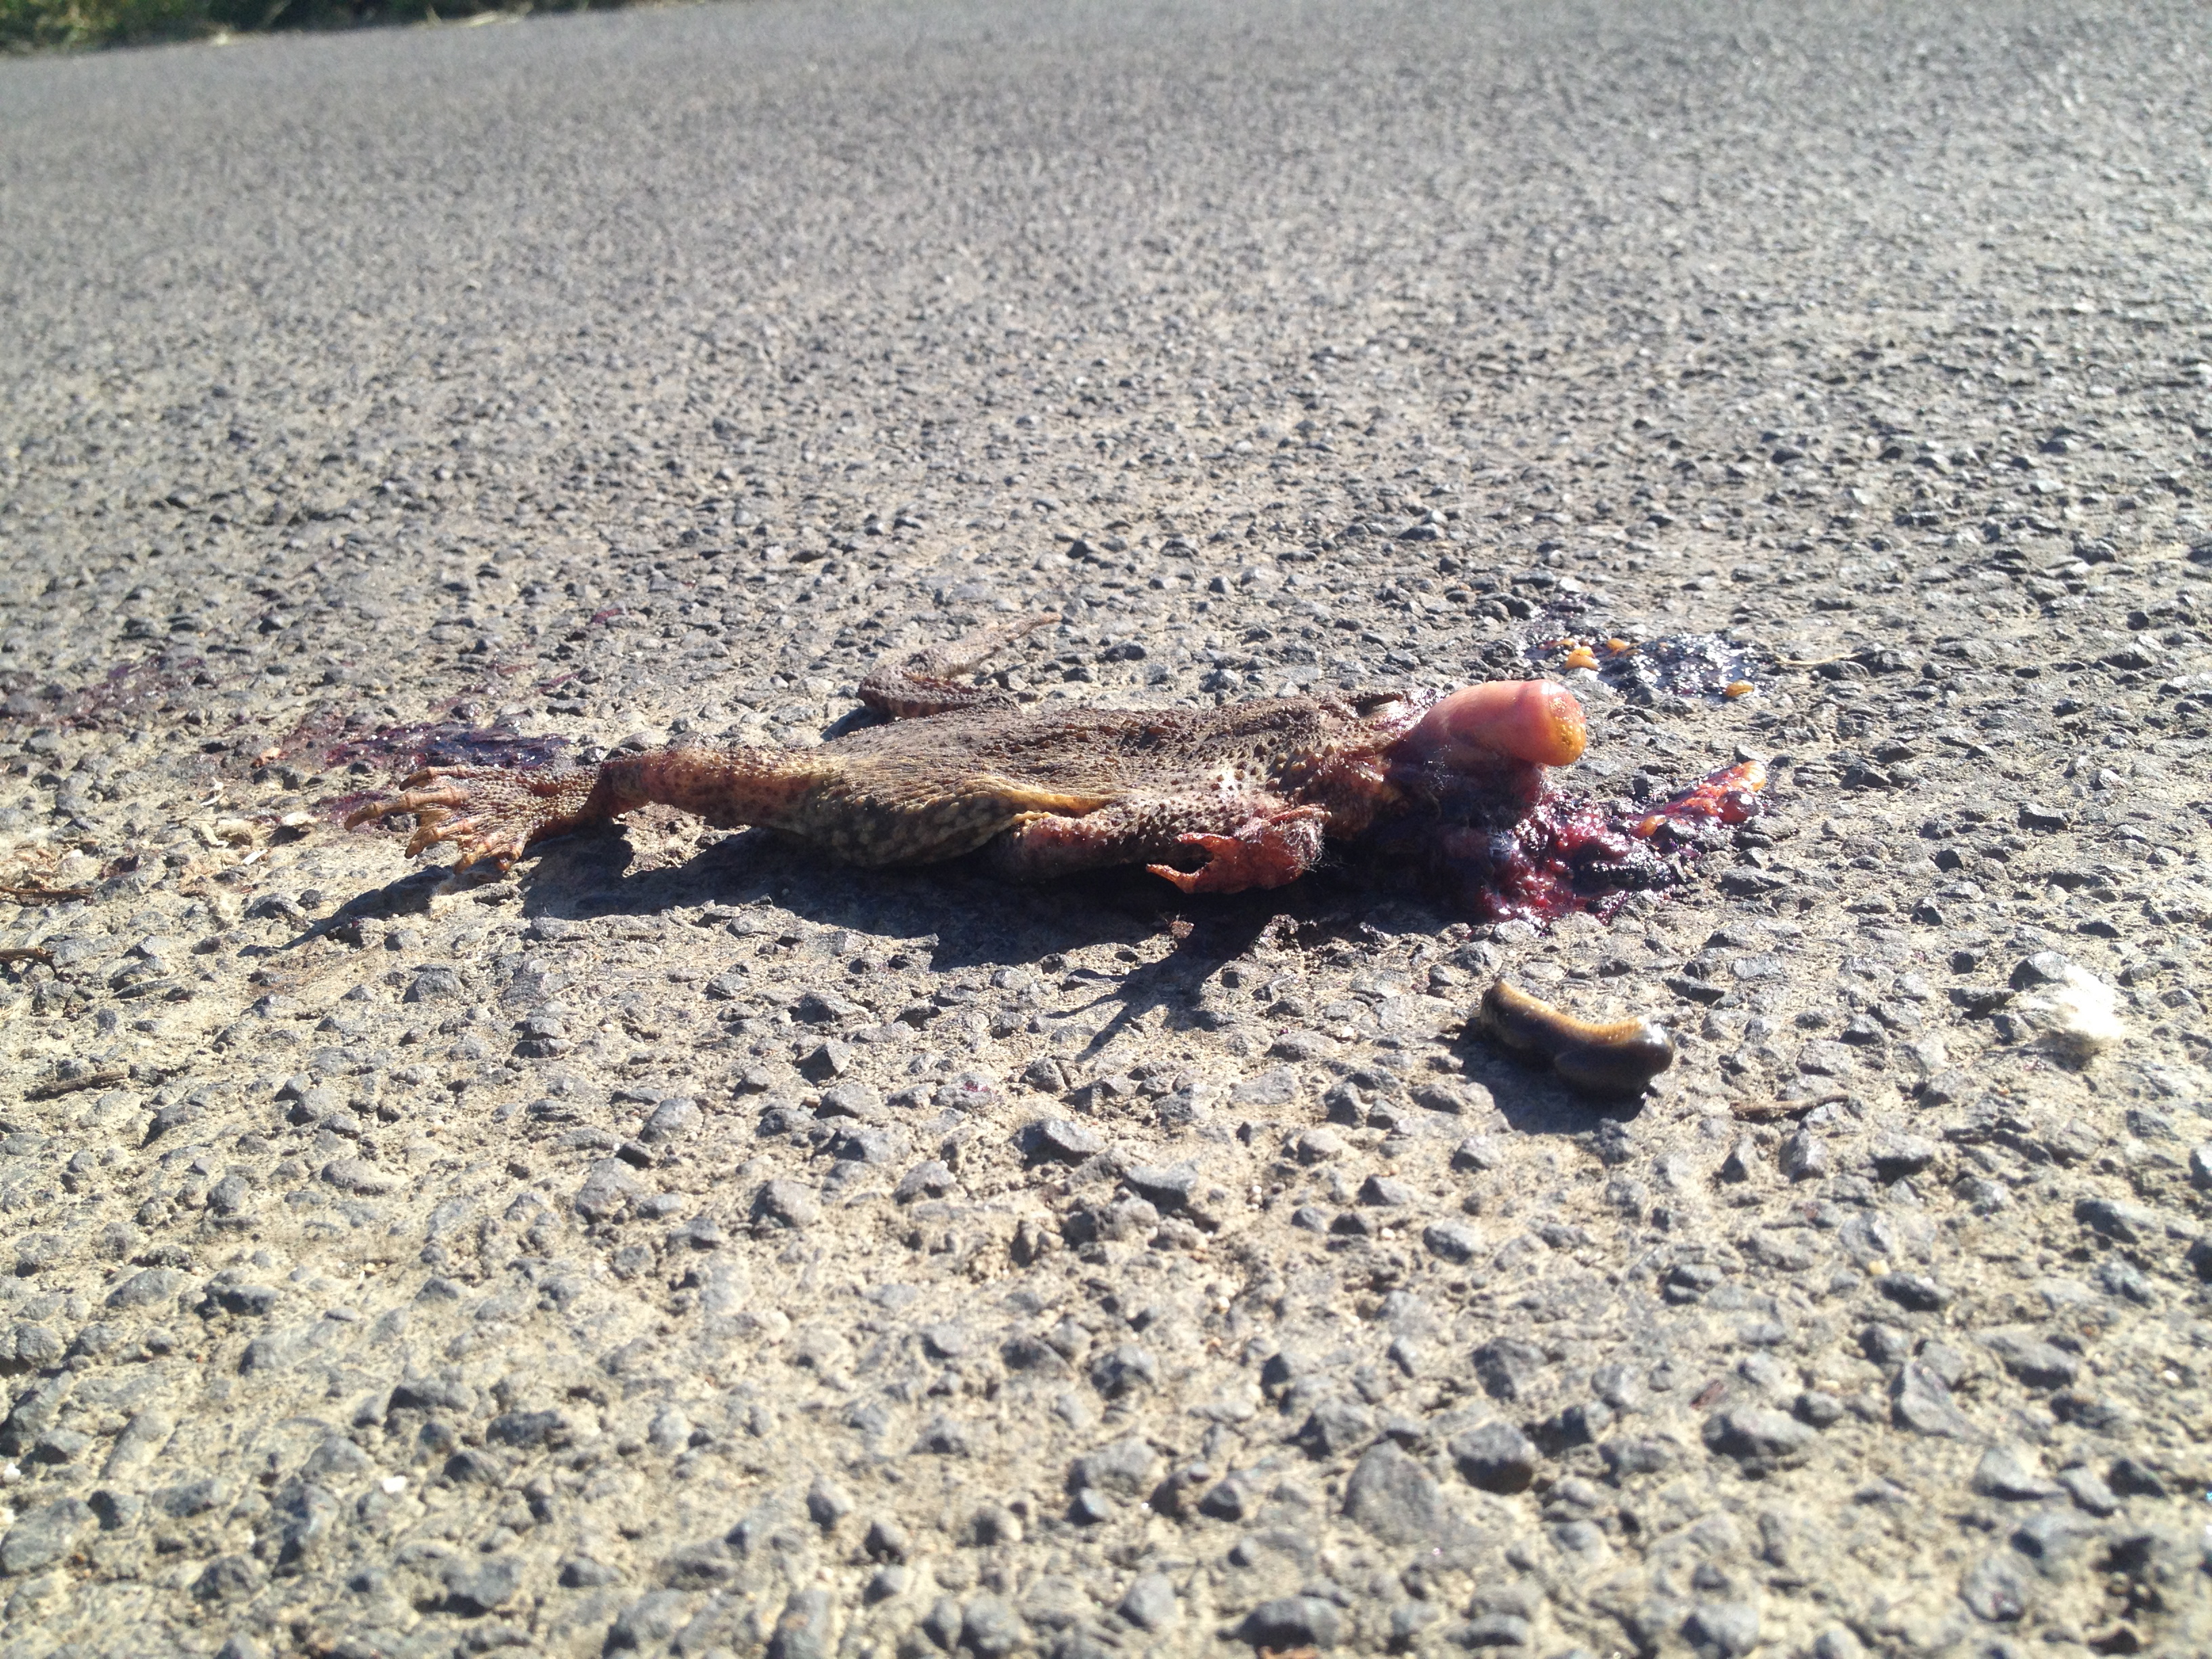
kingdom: Animalia
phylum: Chordata
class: Amphibia
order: Anura
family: Bufonidae
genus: Bufo
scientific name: Bufo bufo
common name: Common toad
